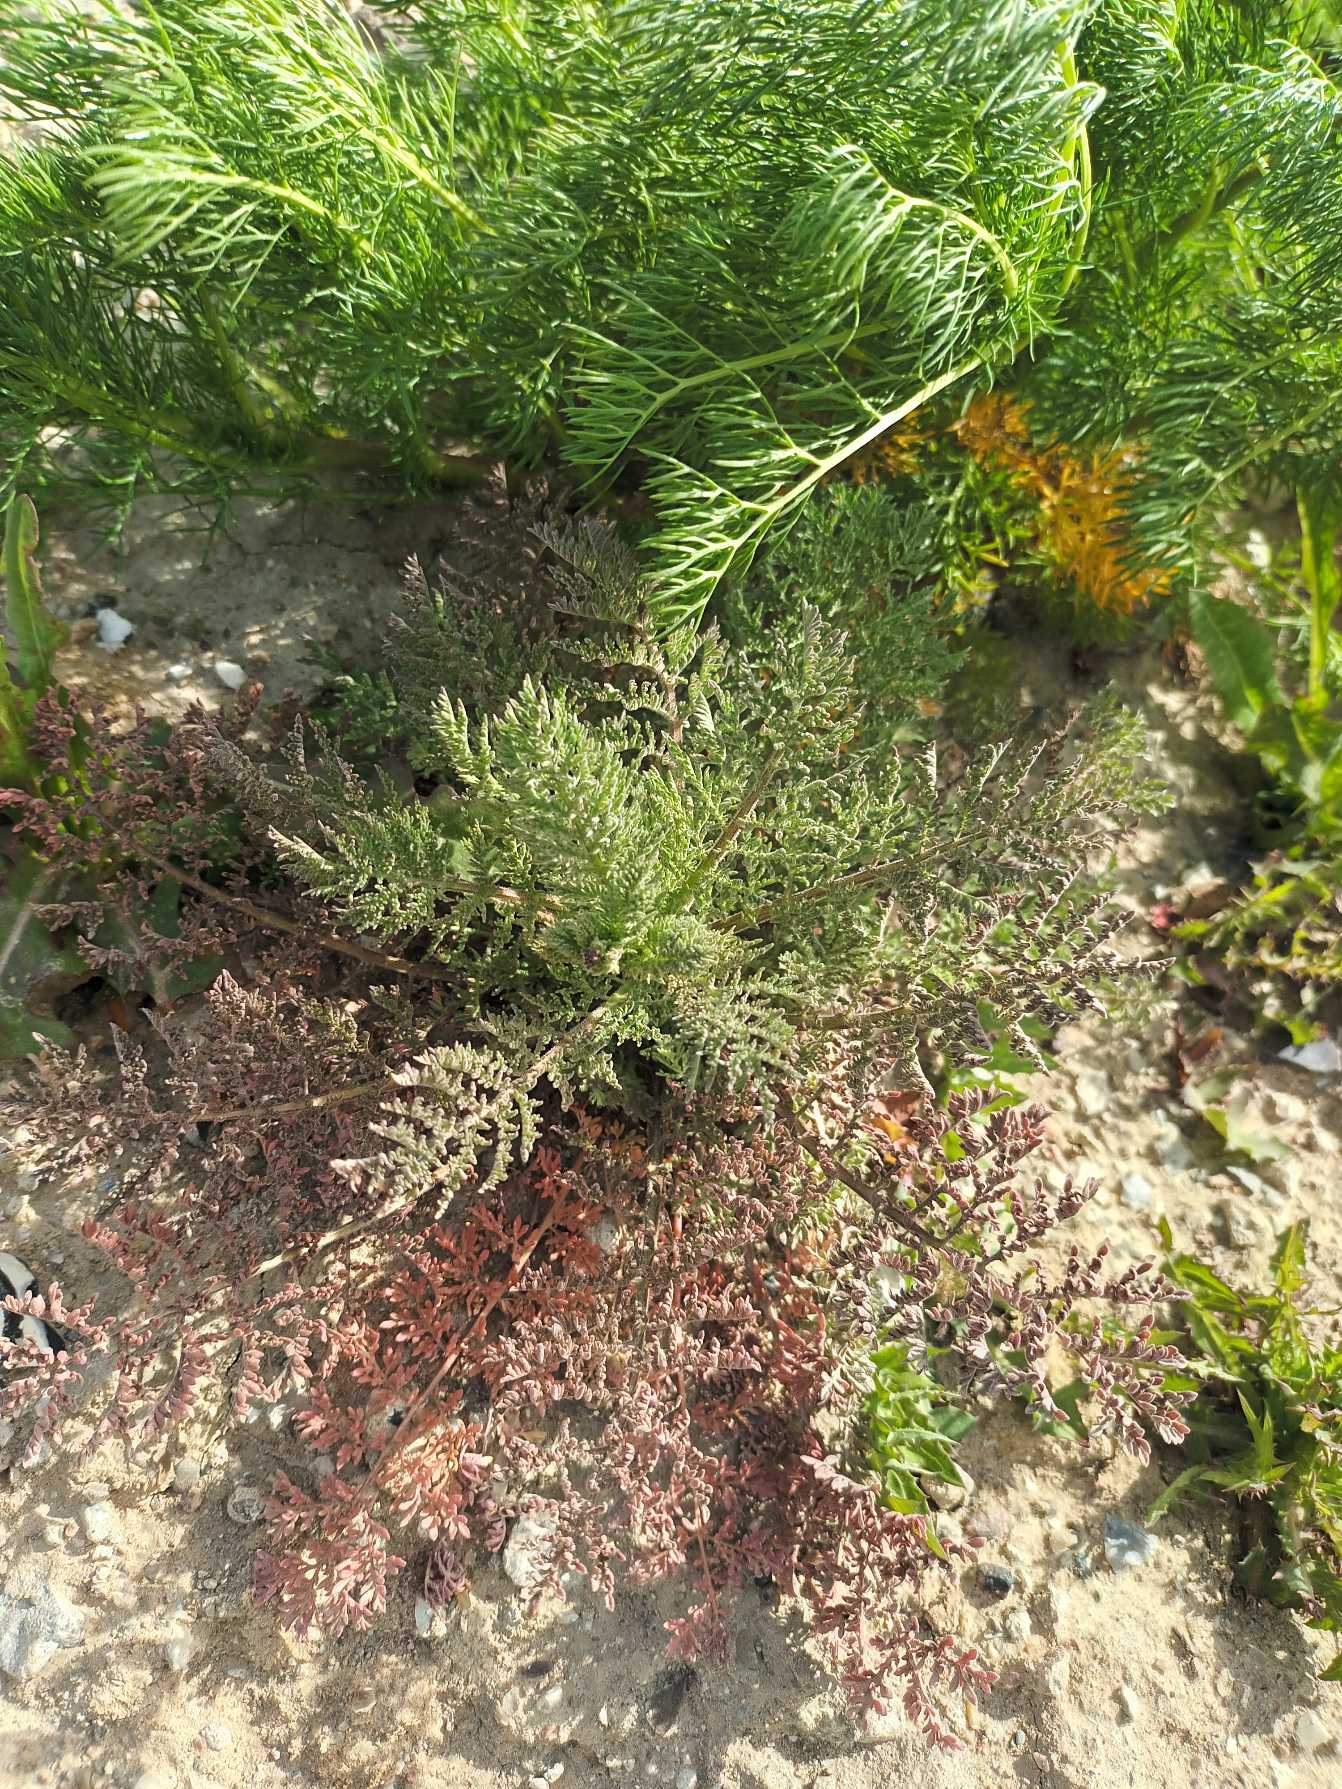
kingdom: Plantae
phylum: Tracheophyta
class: Magnoliopsida
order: Brassicales
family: Brassicaceae
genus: Descurainia
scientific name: Descurainia sophia
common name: Finbladet vejsennep
